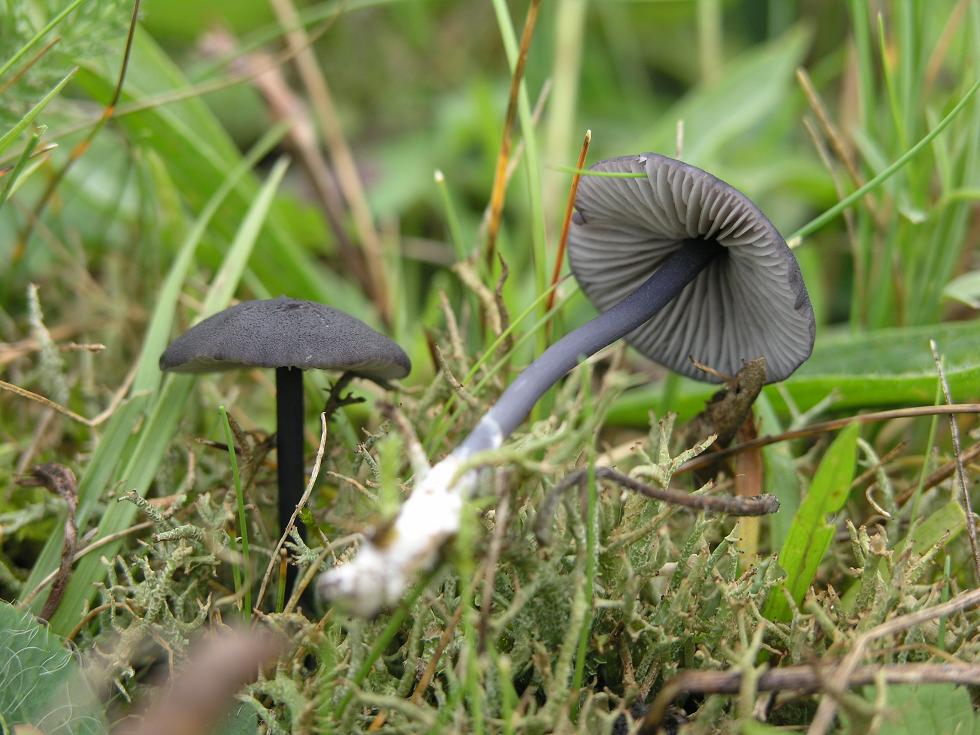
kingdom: Fungi
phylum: Basidiomycota
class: Agaricomycetes
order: Agaricales
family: Entolomataceae
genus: Entoloma
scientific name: Entoloma chalybeum
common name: blåbladet rødblad
